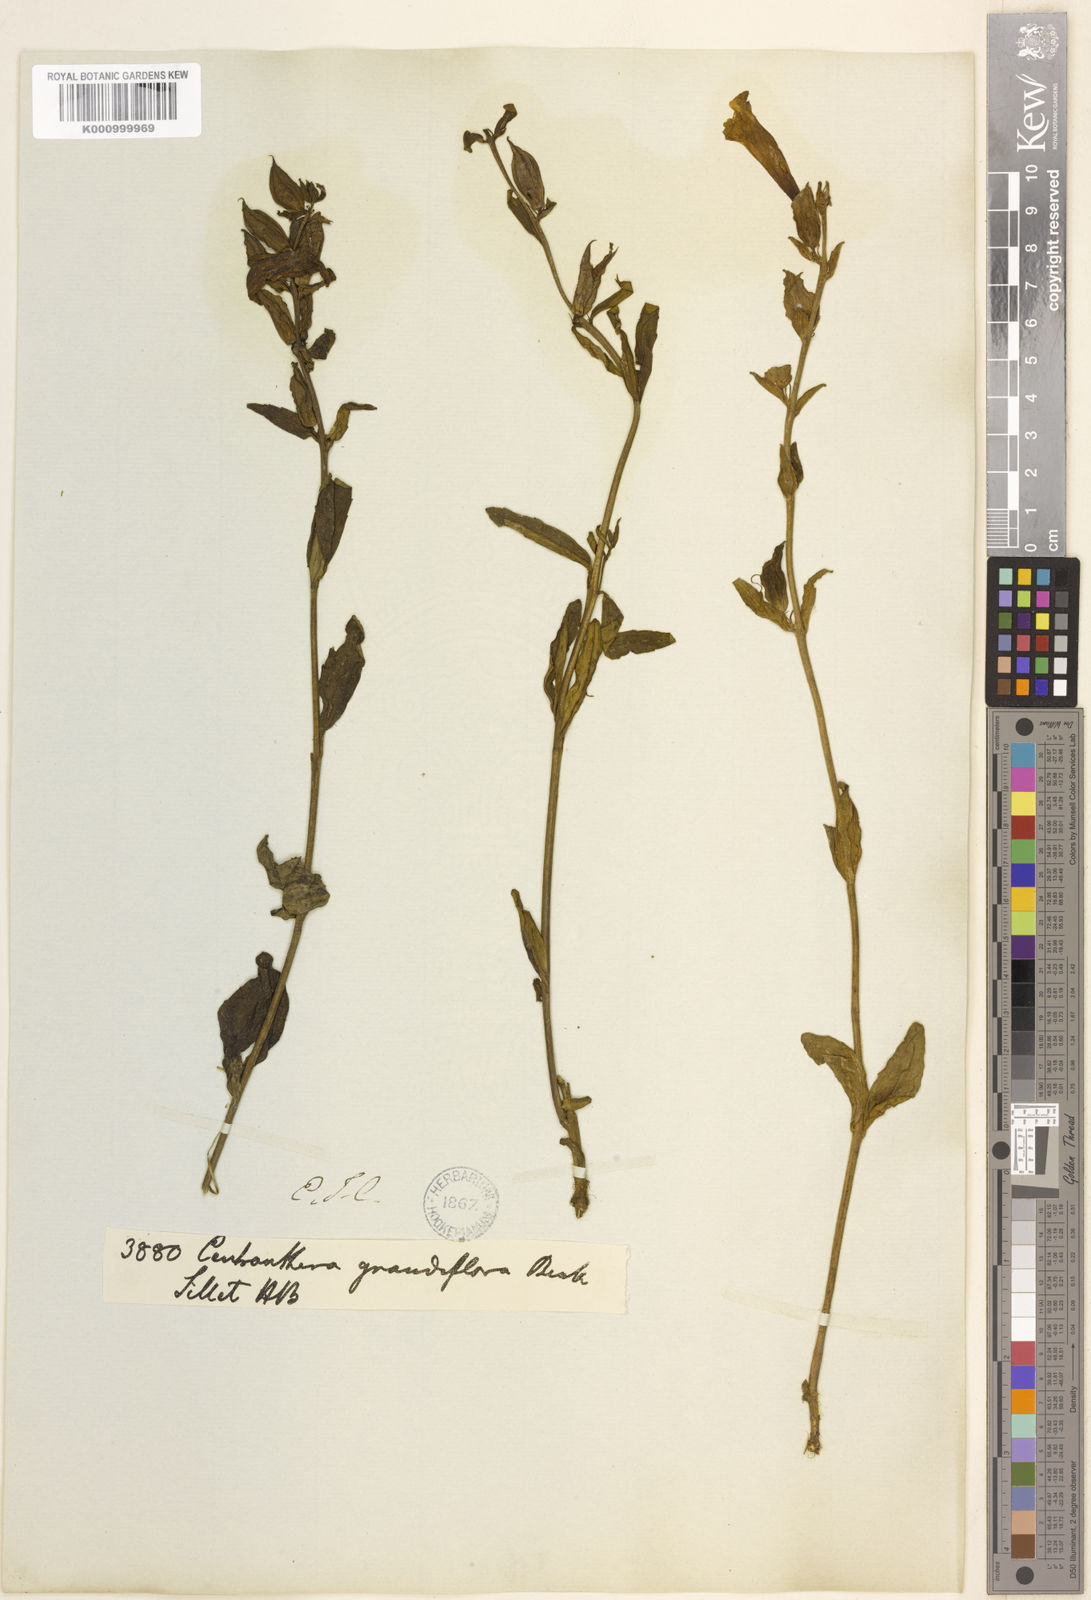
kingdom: Plantae
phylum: Tracheophyta
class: Magnoliopsida
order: Lamiales
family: Orobanchaceae
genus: Centranthera
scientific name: Centranthera grandiflora
